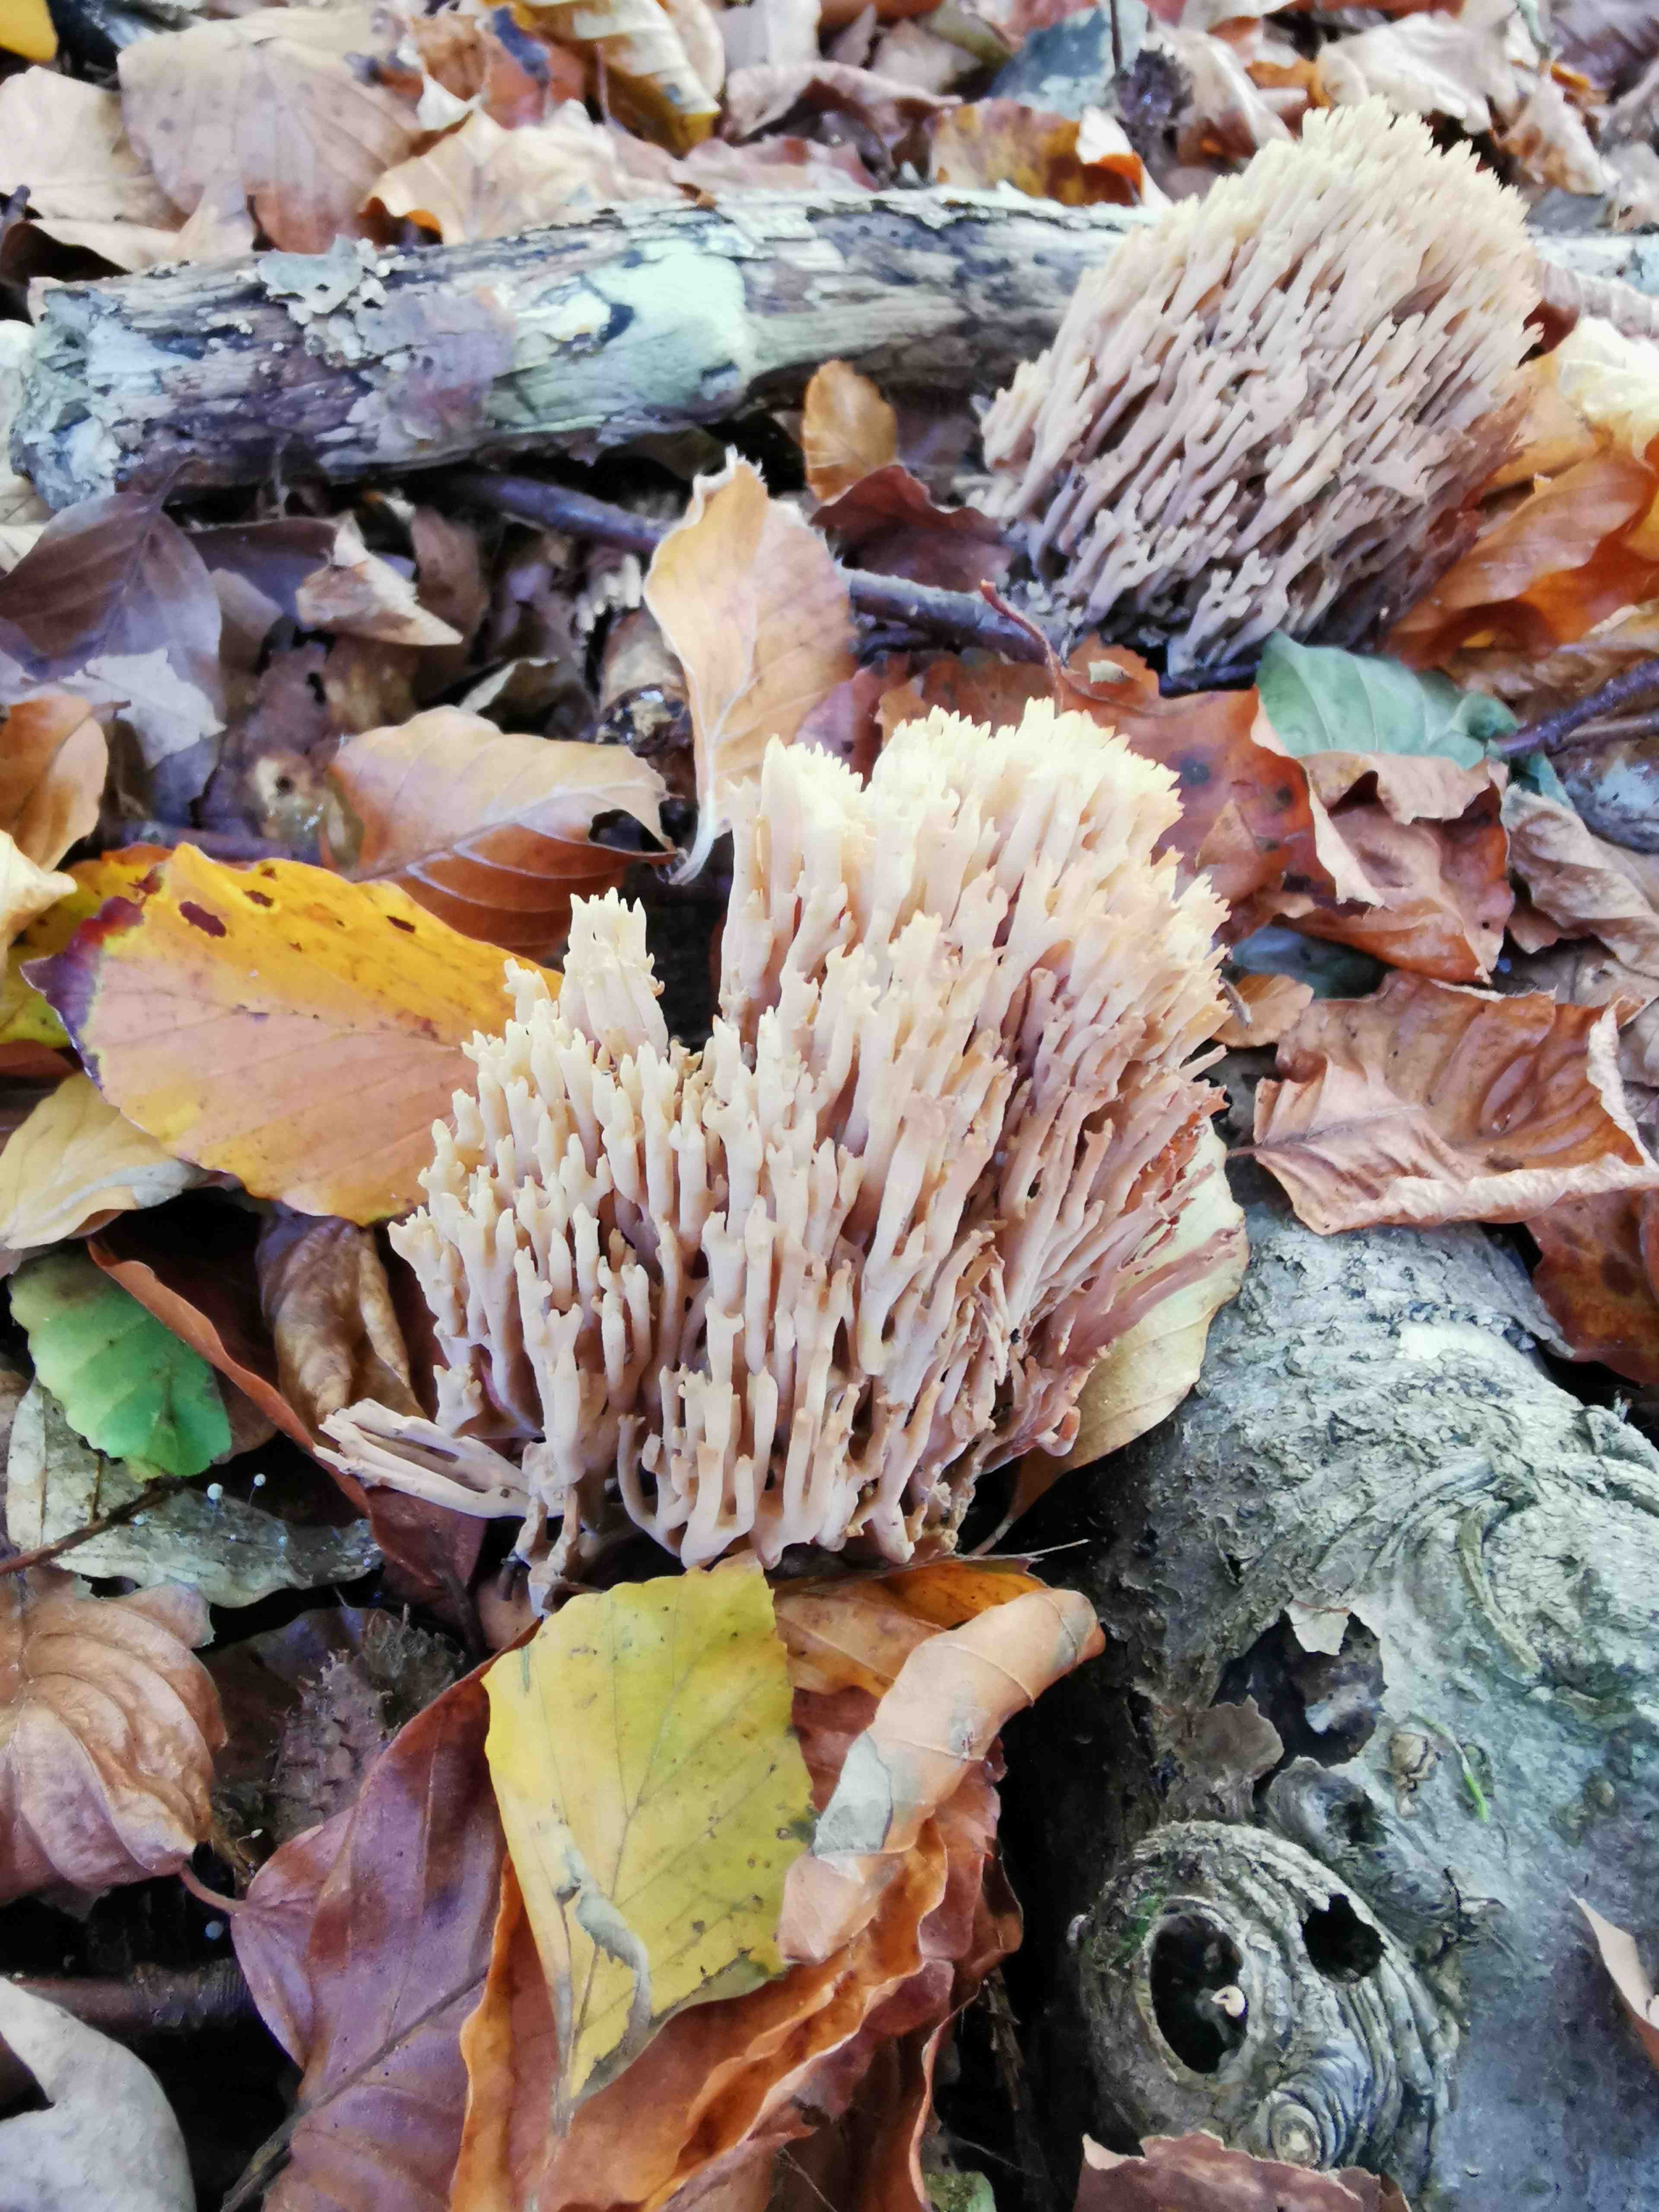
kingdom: Fungi
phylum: Basidiomycota
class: Agaricomycetes
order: Gomphales
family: Gomphaceae
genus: Ramaria
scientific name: Ramaria stricta
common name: rank koralsvamp
